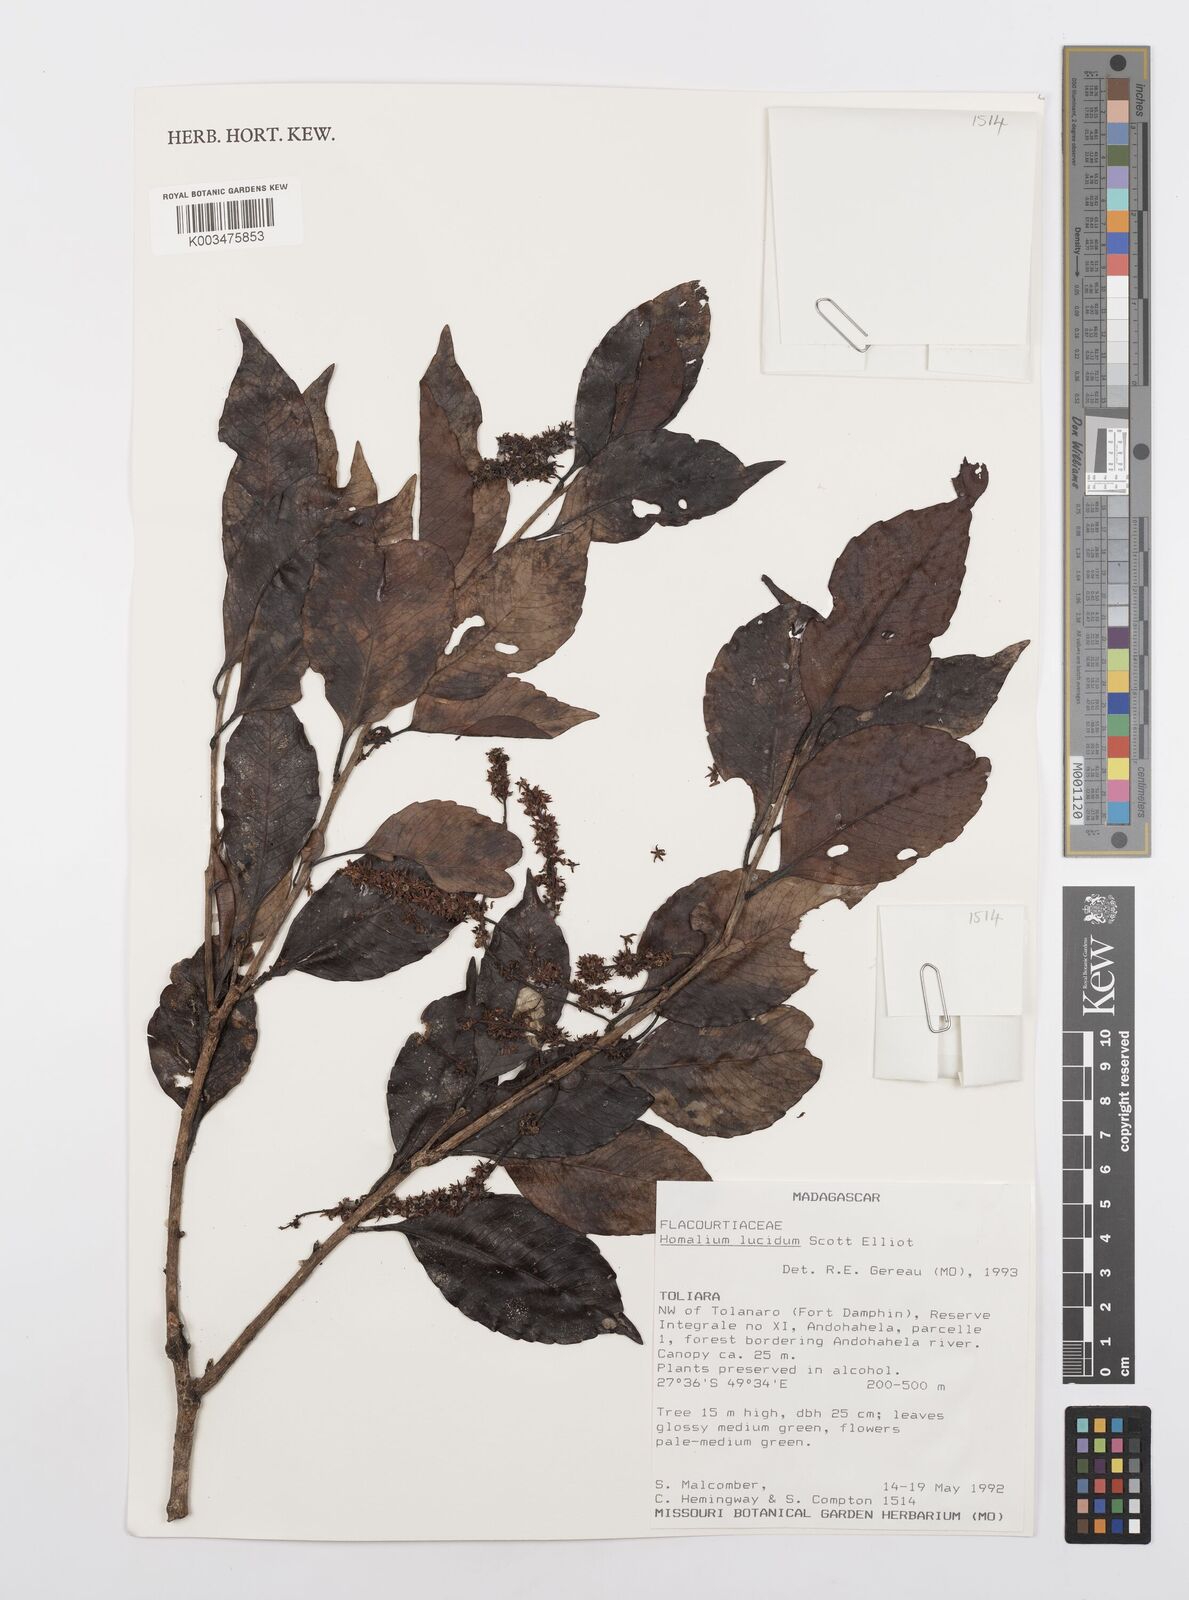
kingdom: Plantae
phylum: Tracheophyta
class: Magnoliopsida
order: Malpighiales
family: Salicaceae
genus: Homalium
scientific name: Homalium lucidum
